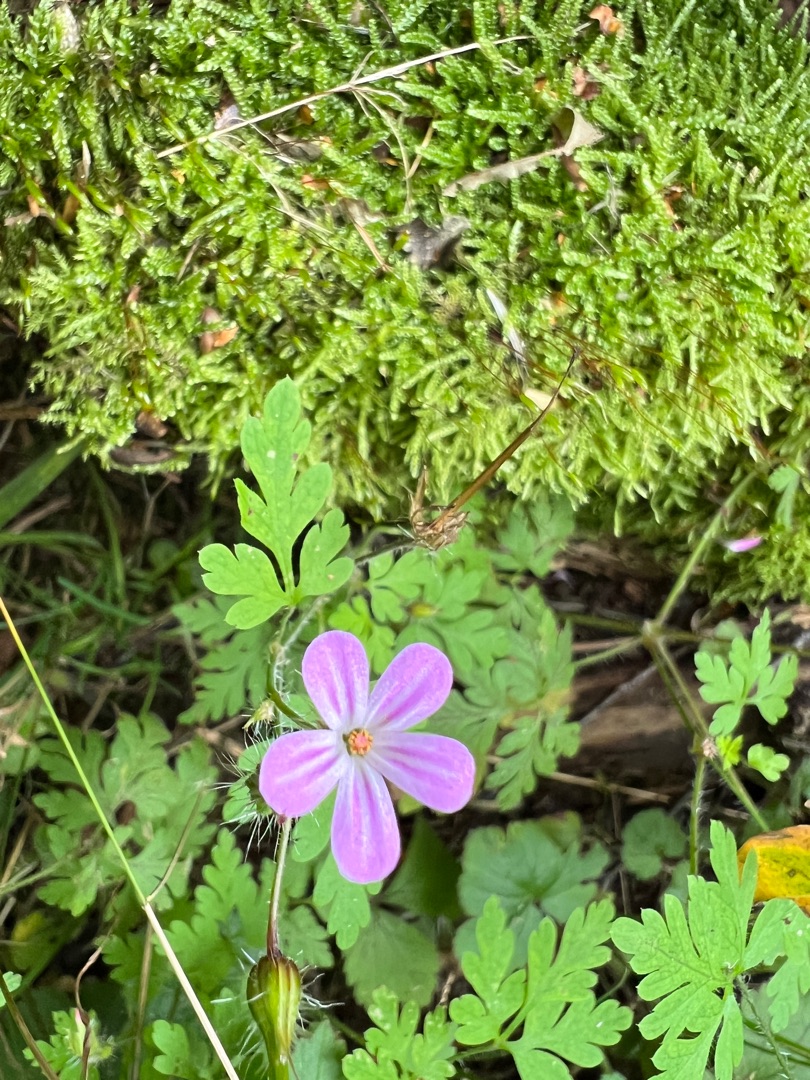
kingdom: Plantae
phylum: Tracheophyta
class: Magnoliopsida
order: Geraniales
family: Geraniaceae
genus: Geranium
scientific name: Geranium robertianum
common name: Stinkende storkenæb
